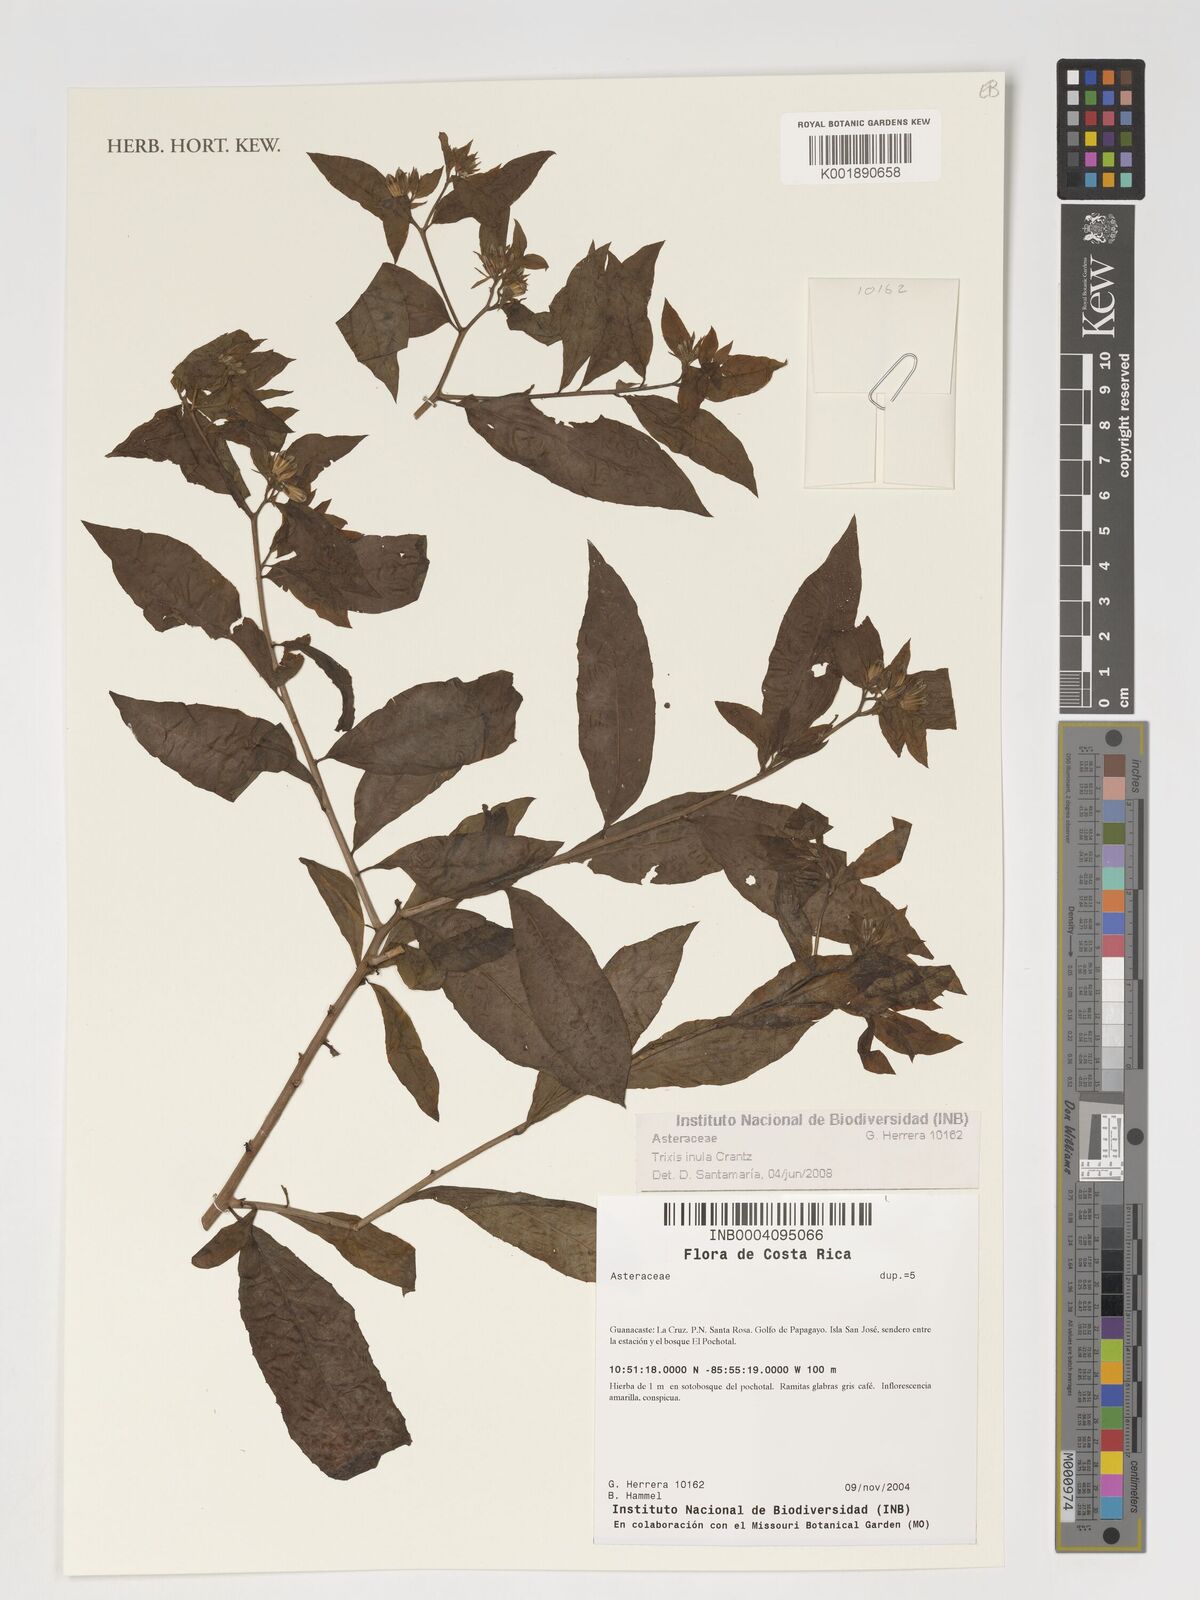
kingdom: Plantae
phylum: Tracheophyta
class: Magnoliopsida
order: Asterales
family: Asteraceae
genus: Trixis
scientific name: Trixis inula
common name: Tropical threefold
